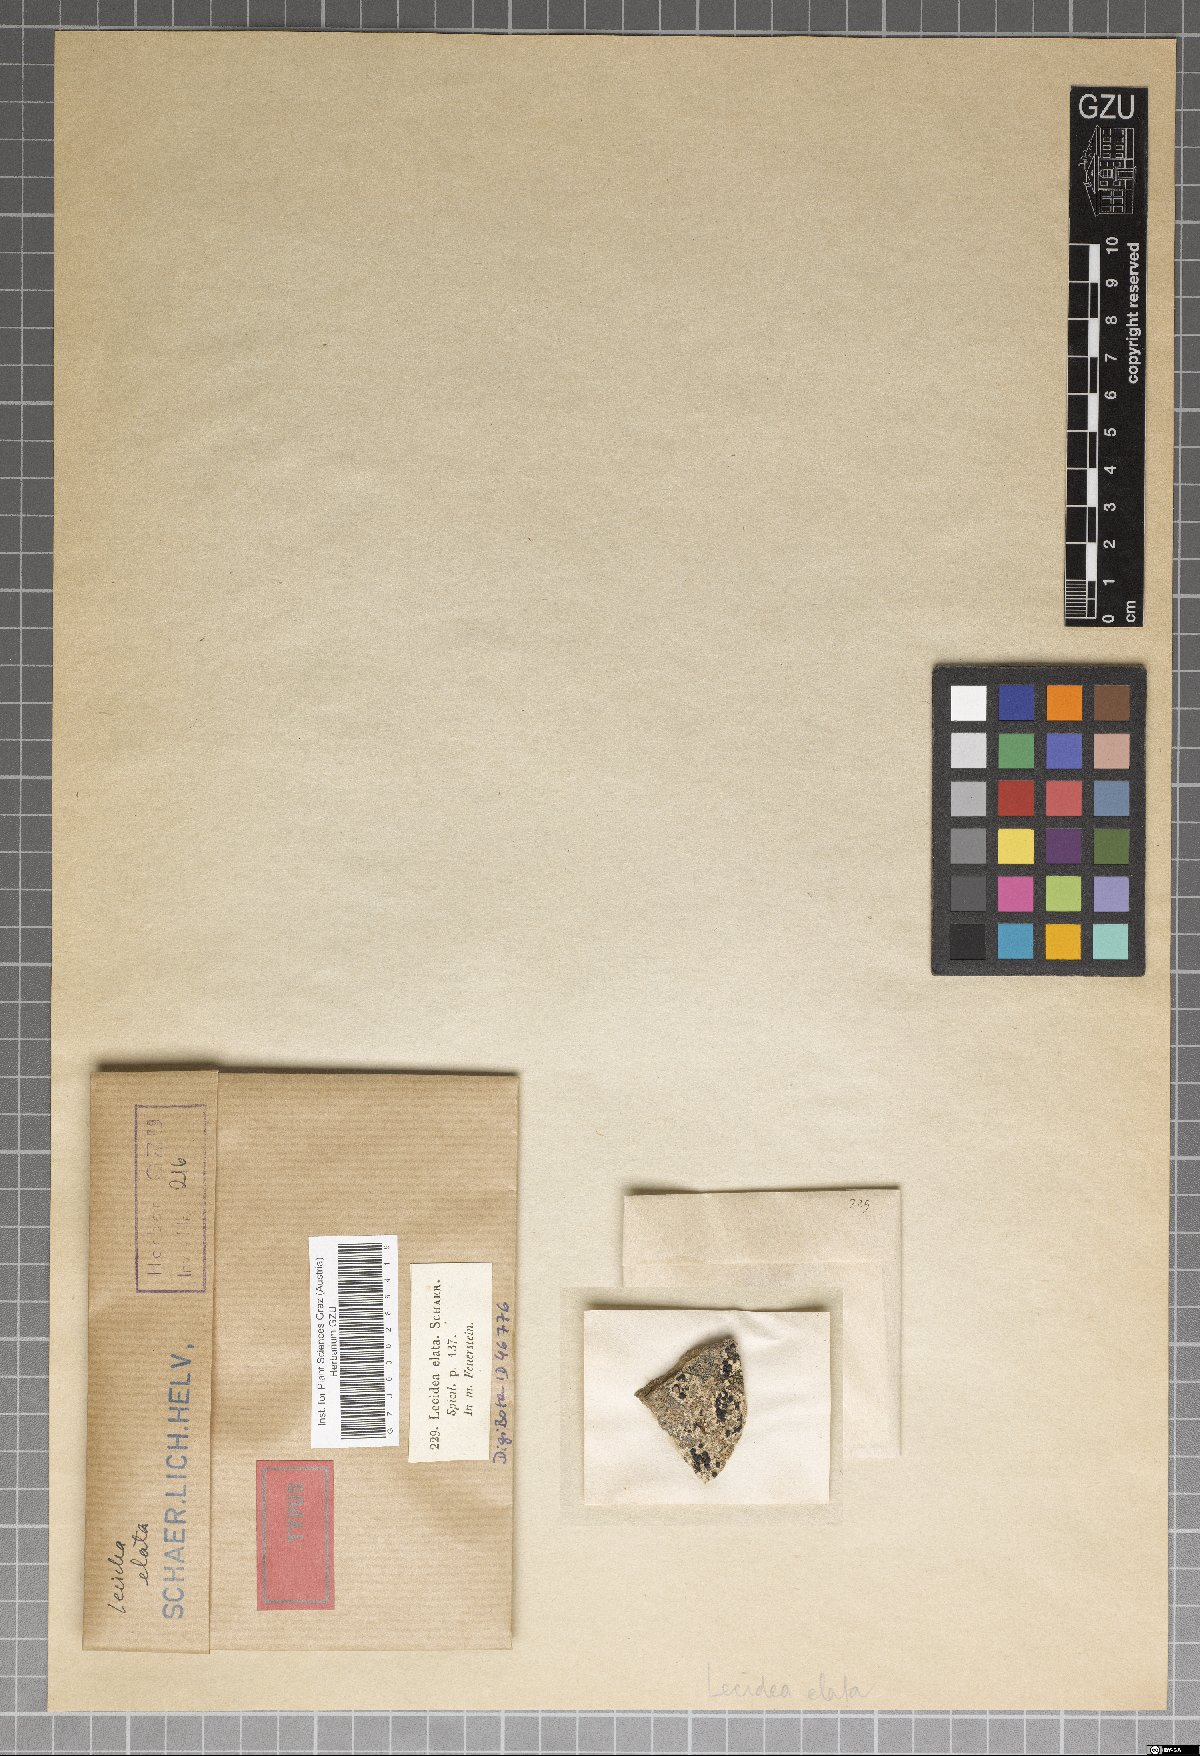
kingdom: Fungi
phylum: Ascomycota
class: Lecanoromycetes
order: Lecanorales
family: Lecanoraceae
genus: Lecanora
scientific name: Lecanora marginata
